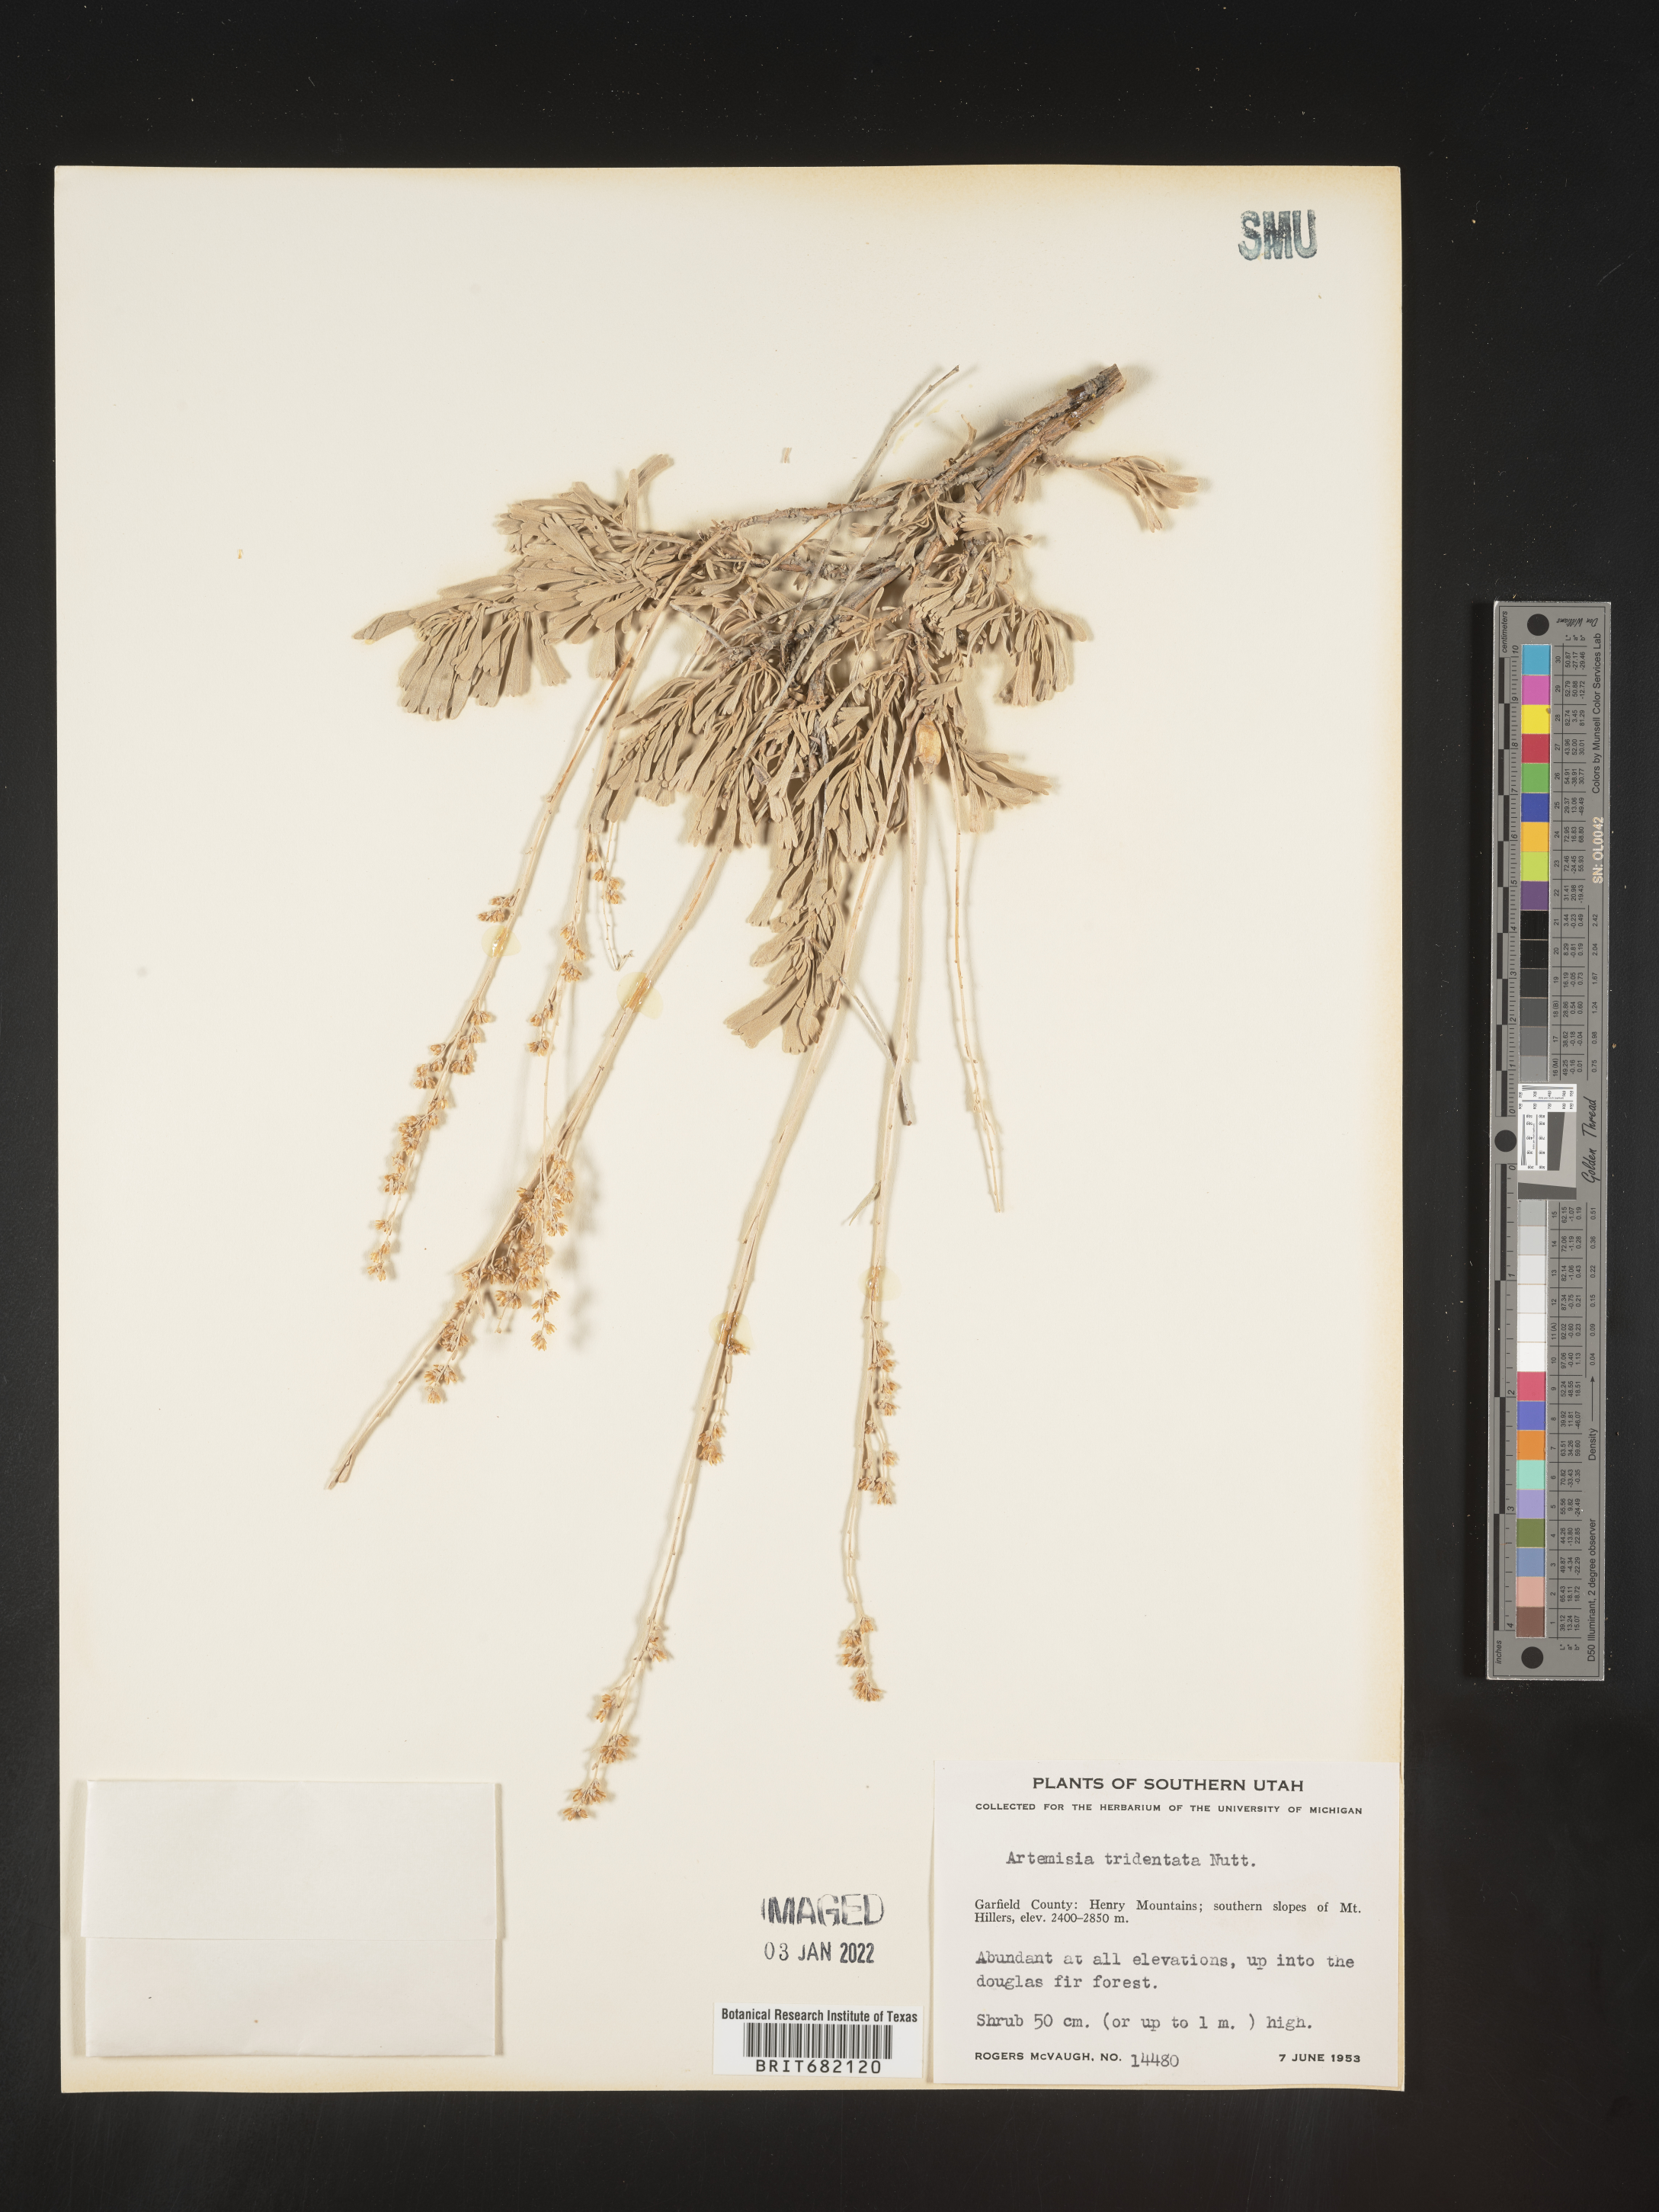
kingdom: Plantae
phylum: Tracheophyta
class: Magnoliopsida
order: Asterales
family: Asteraceae
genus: Artemisia
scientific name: Artemisia tridentata
